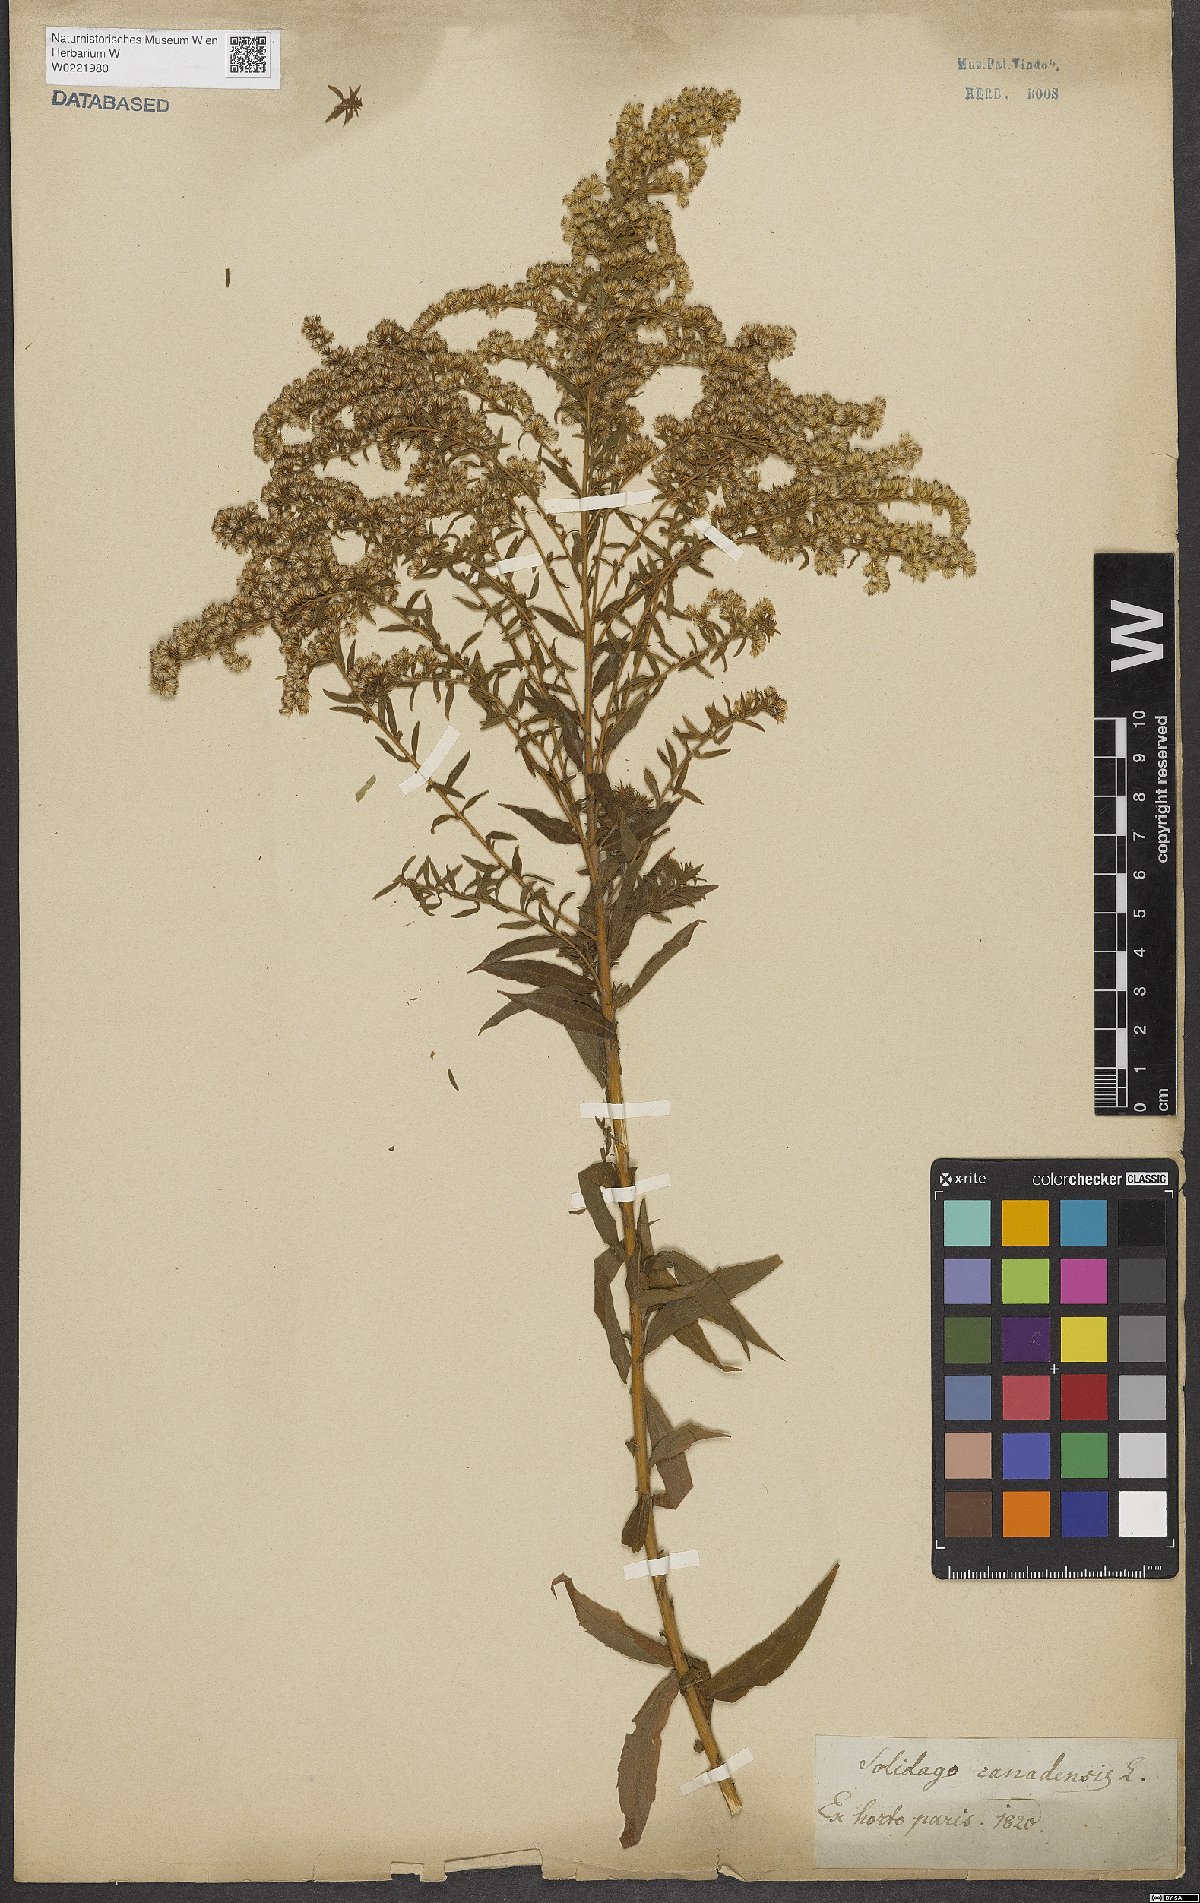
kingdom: Plantae
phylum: Tracheophyta
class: Magnoliopsida
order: Asterales
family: Asteraceae
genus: Solidago
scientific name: Solidago canadensis
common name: Canada goldenrod
